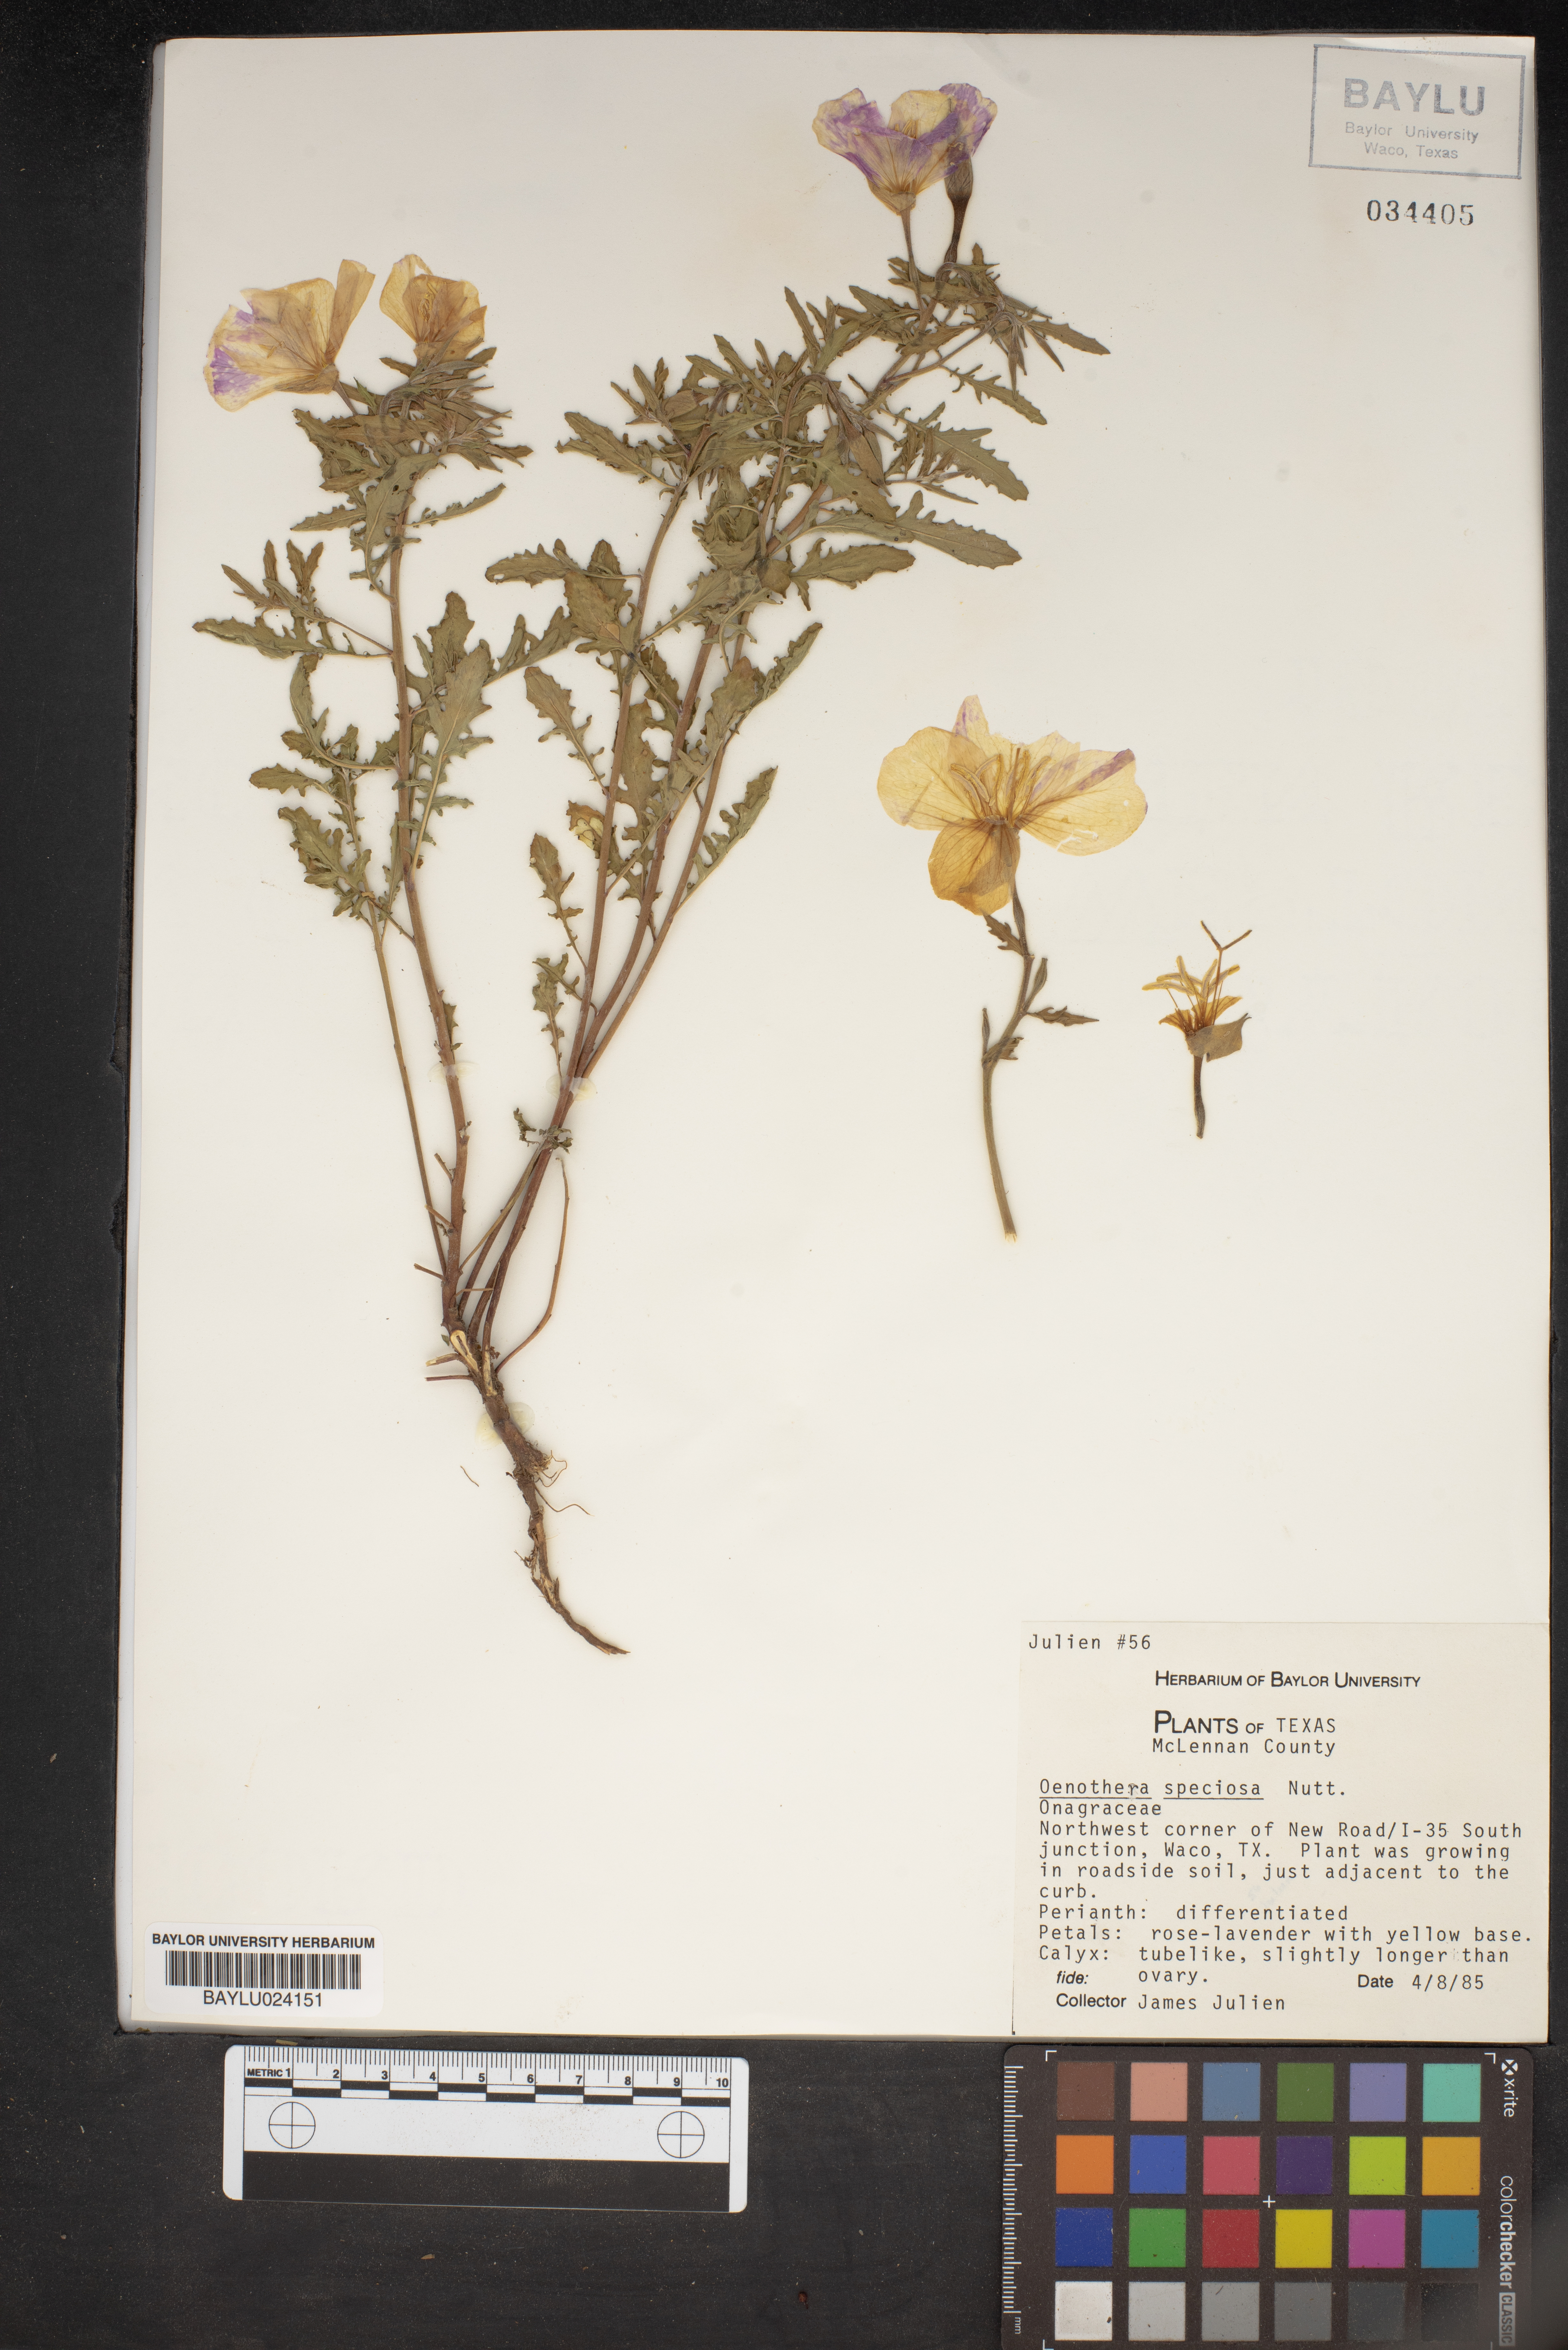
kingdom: Plantae
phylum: Tracheophyta
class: Magnoliopsida
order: Myrtales
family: Onagraceae
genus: Oenothera
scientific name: Oenothera speciosa
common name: White evening-primrose
